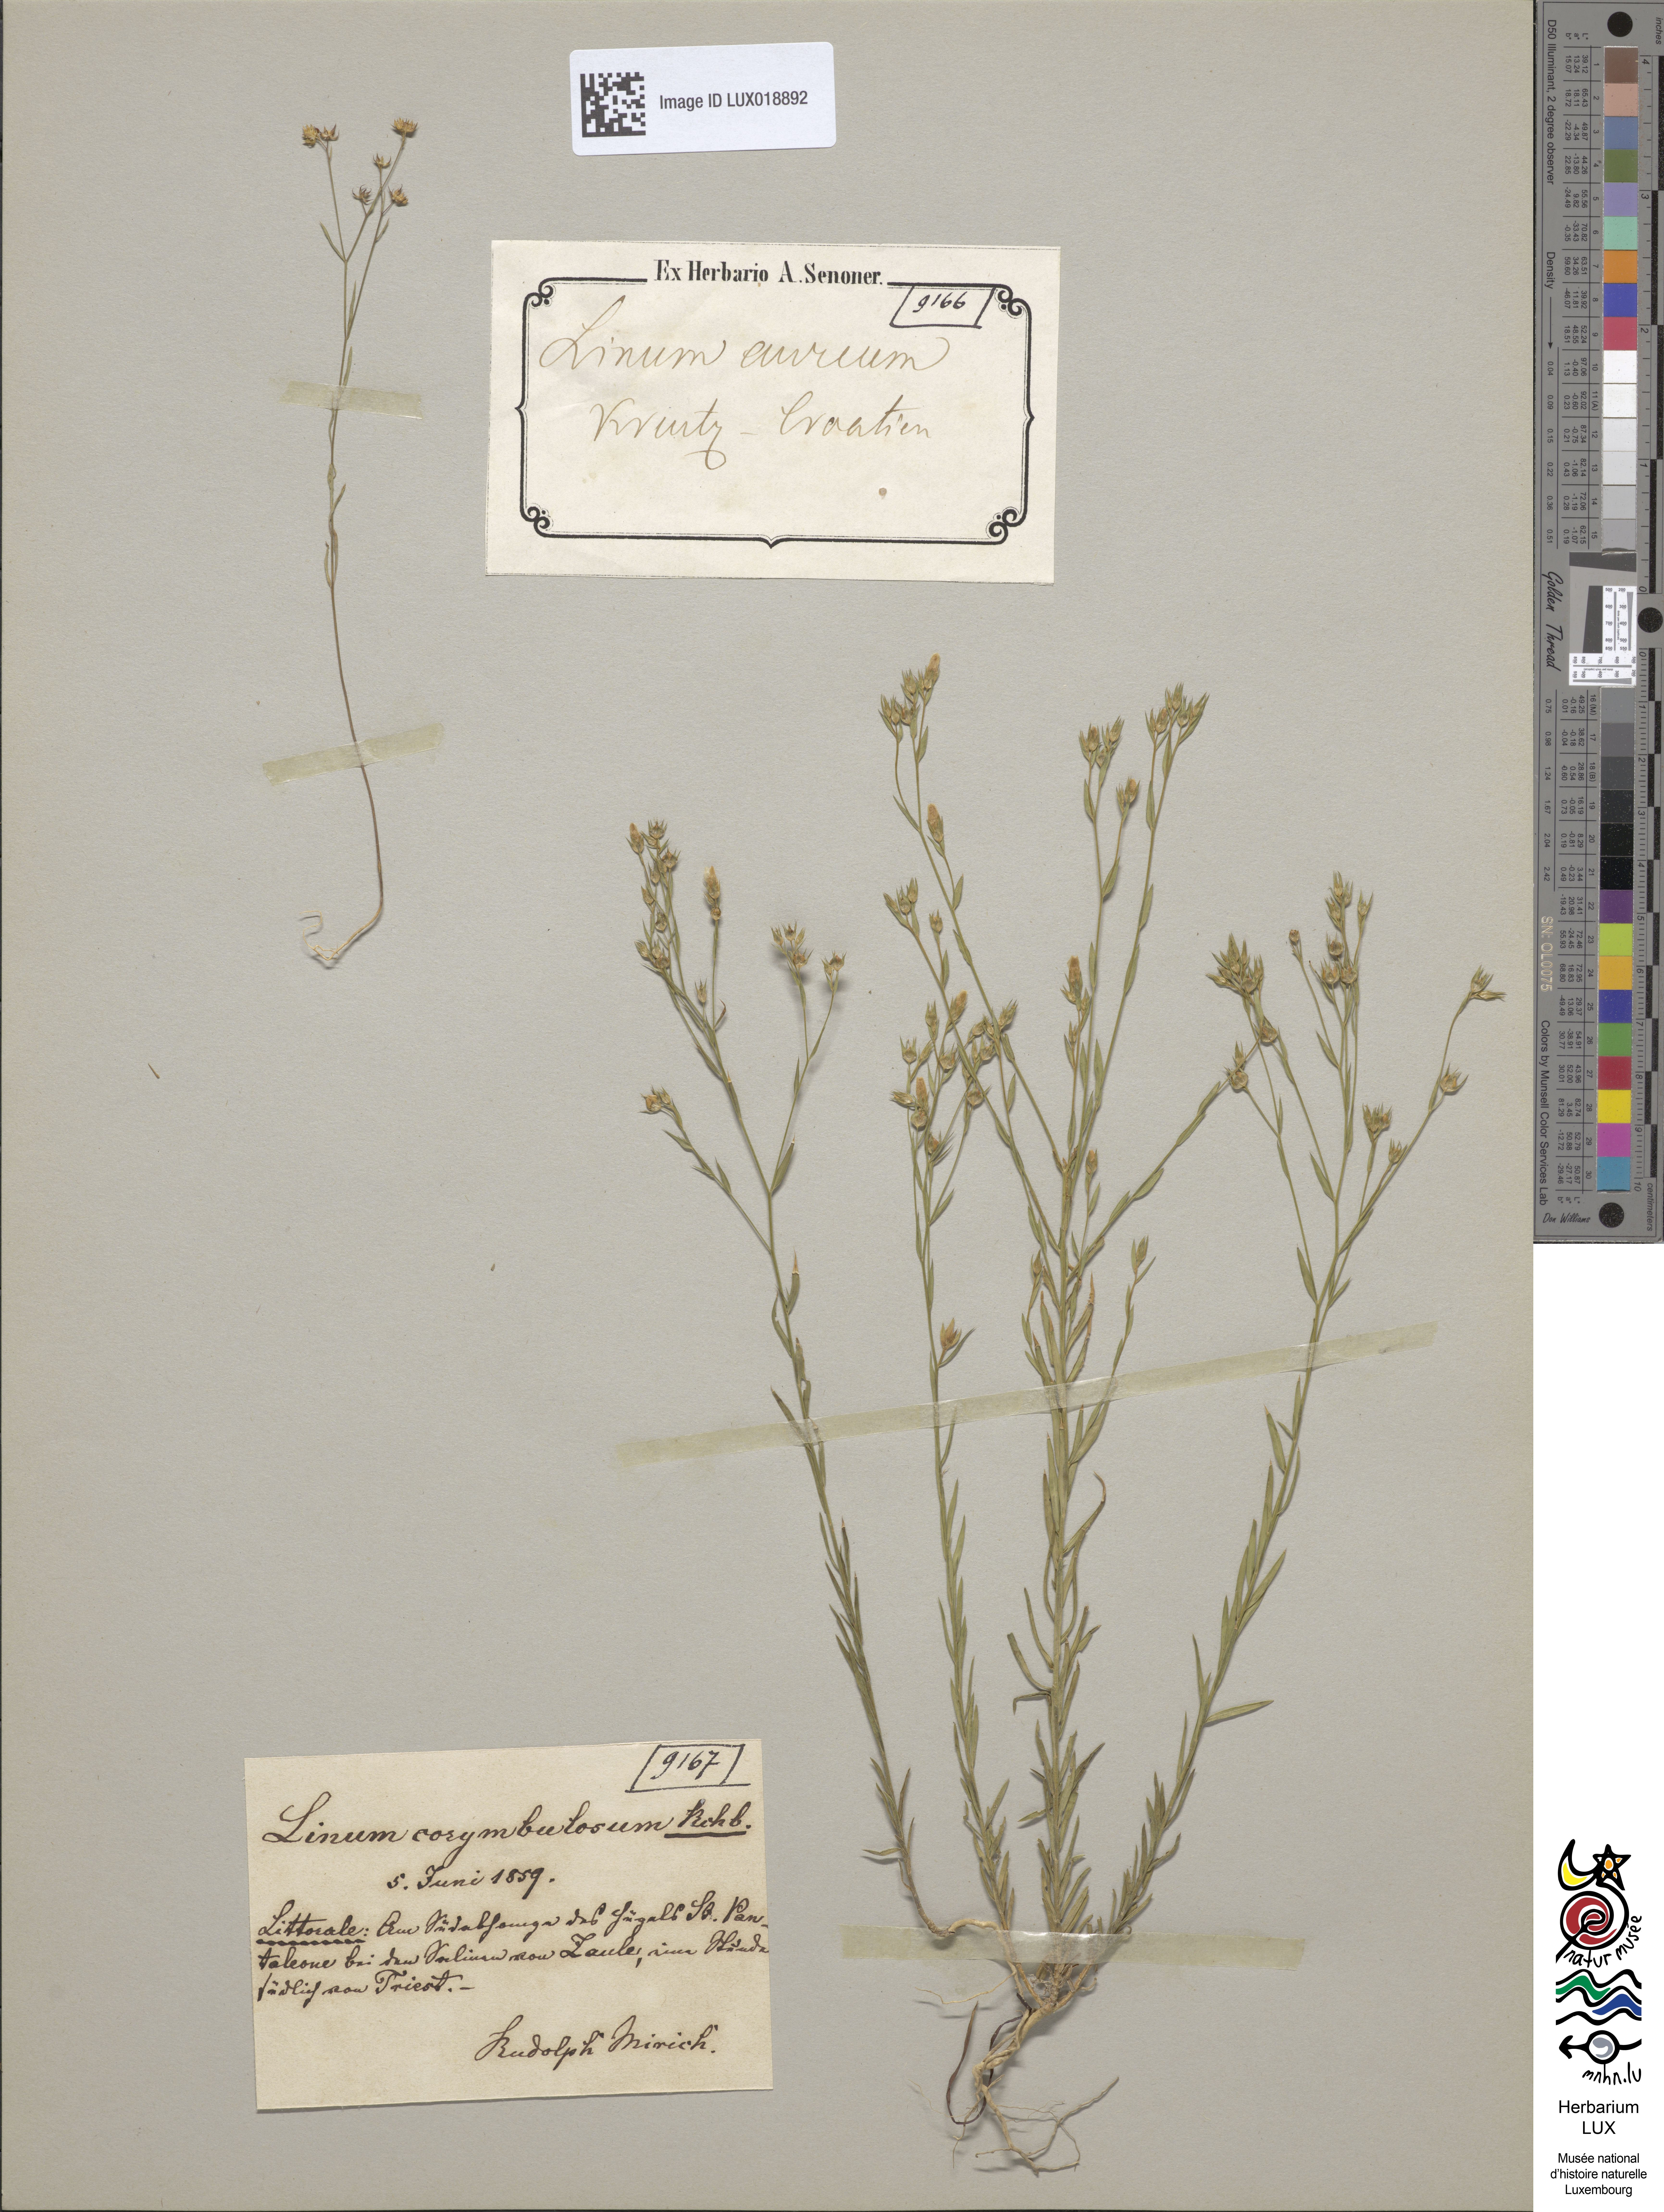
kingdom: Plantae
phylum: Tracheophyta
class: Magnoliopsida
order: Malpighiales
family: Linaceae
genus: Linum
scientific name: Linum corymbulosum
